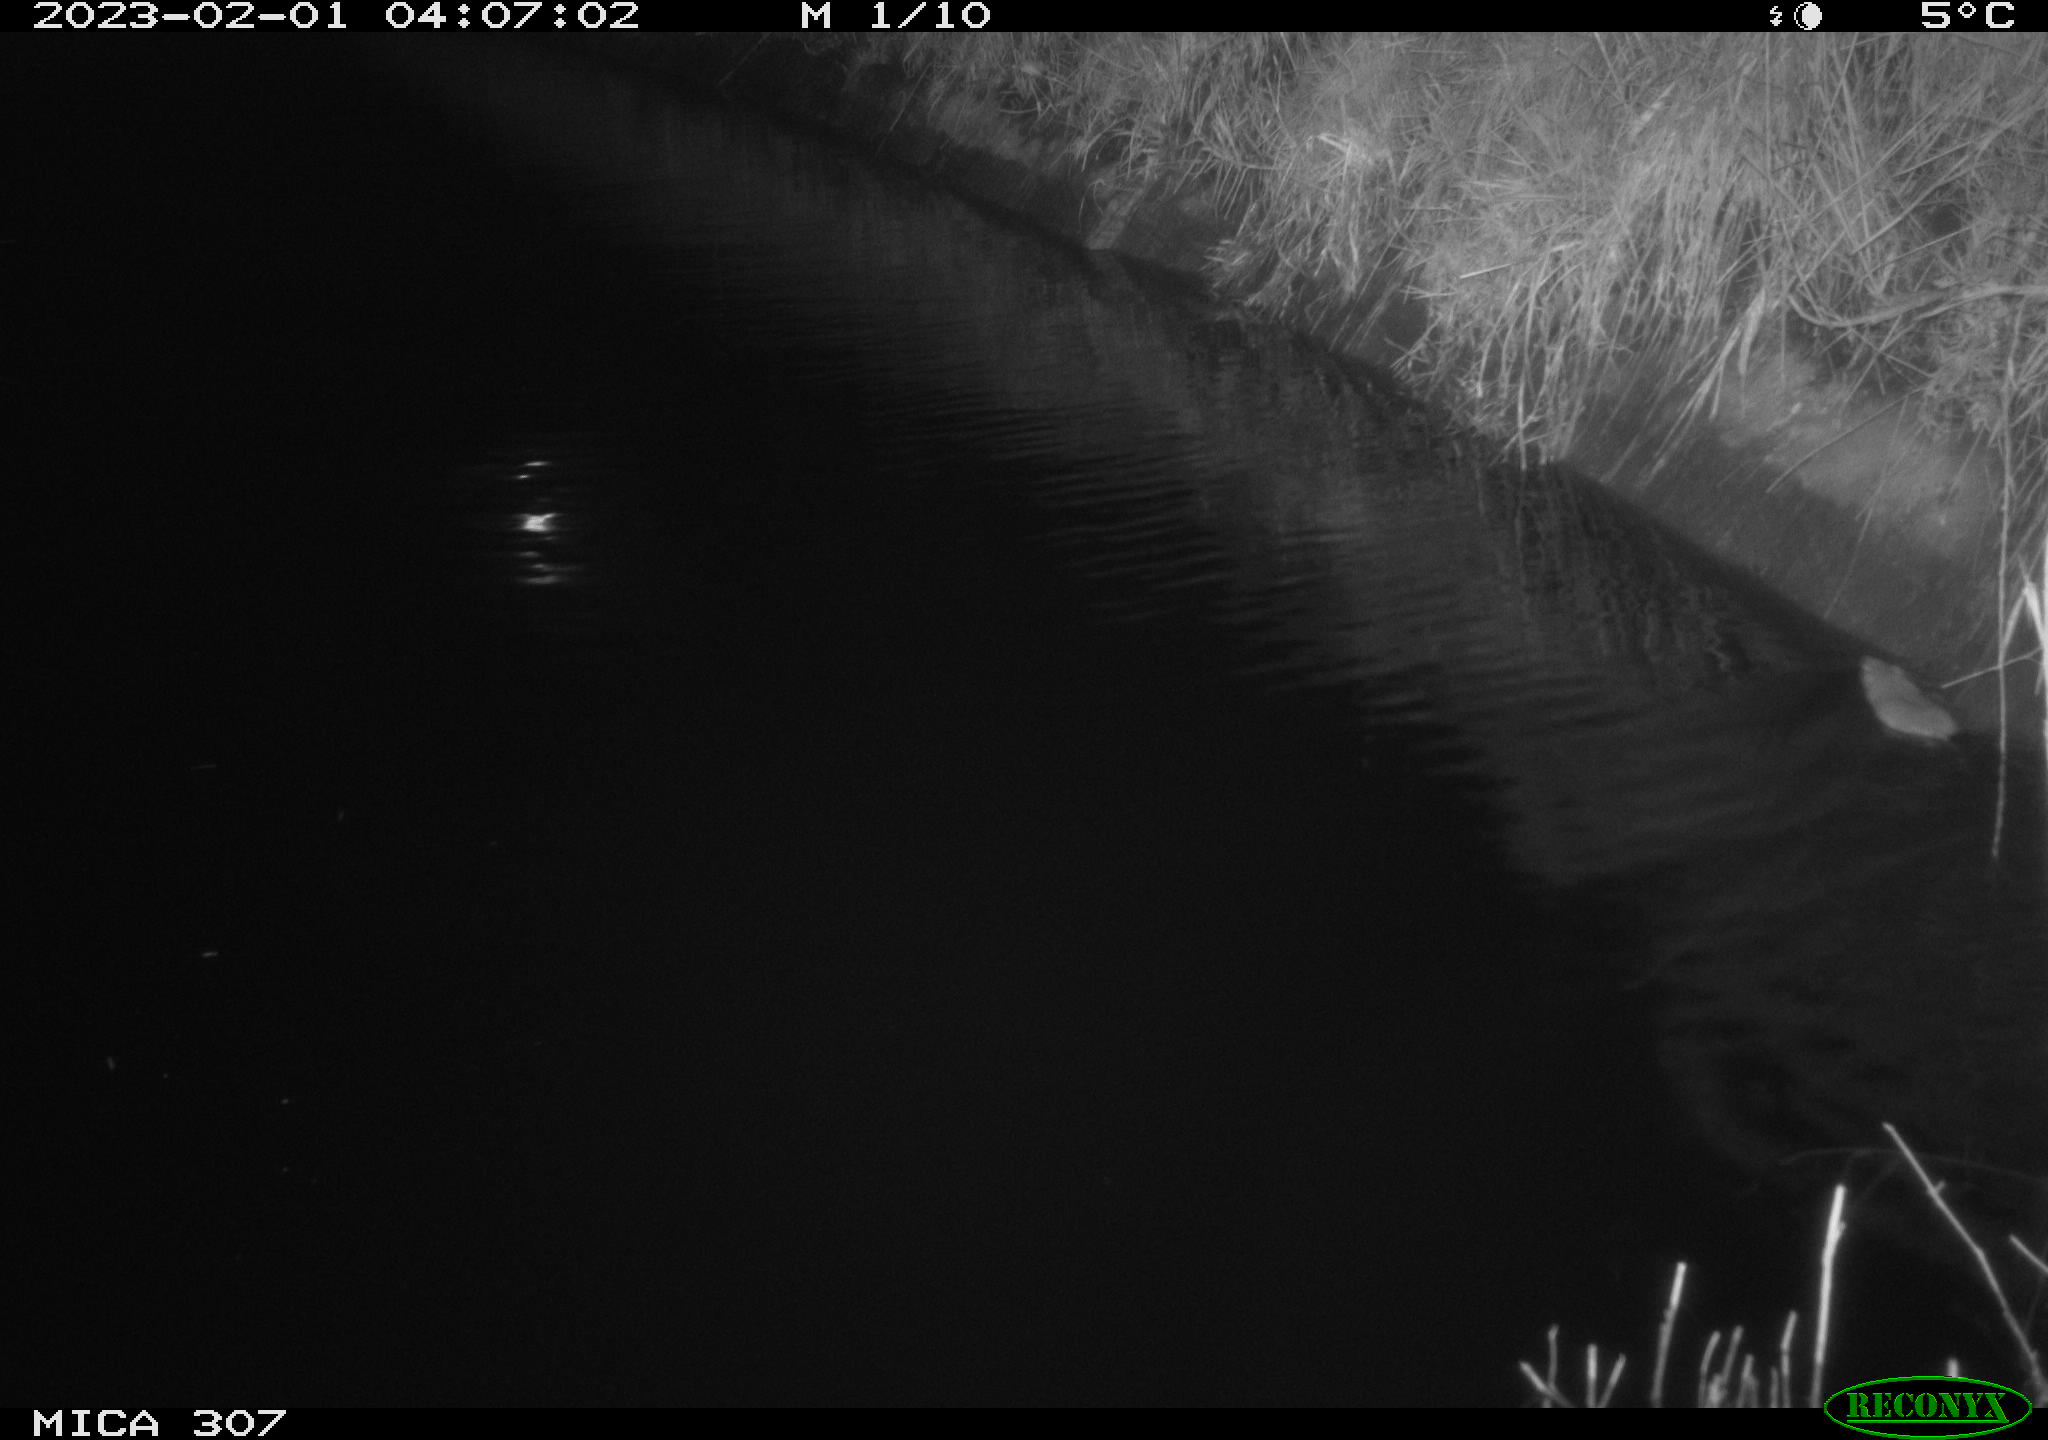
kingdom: Animalia
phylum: Chordata
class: Mammalia
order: Rodentia
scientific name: Rodentia
